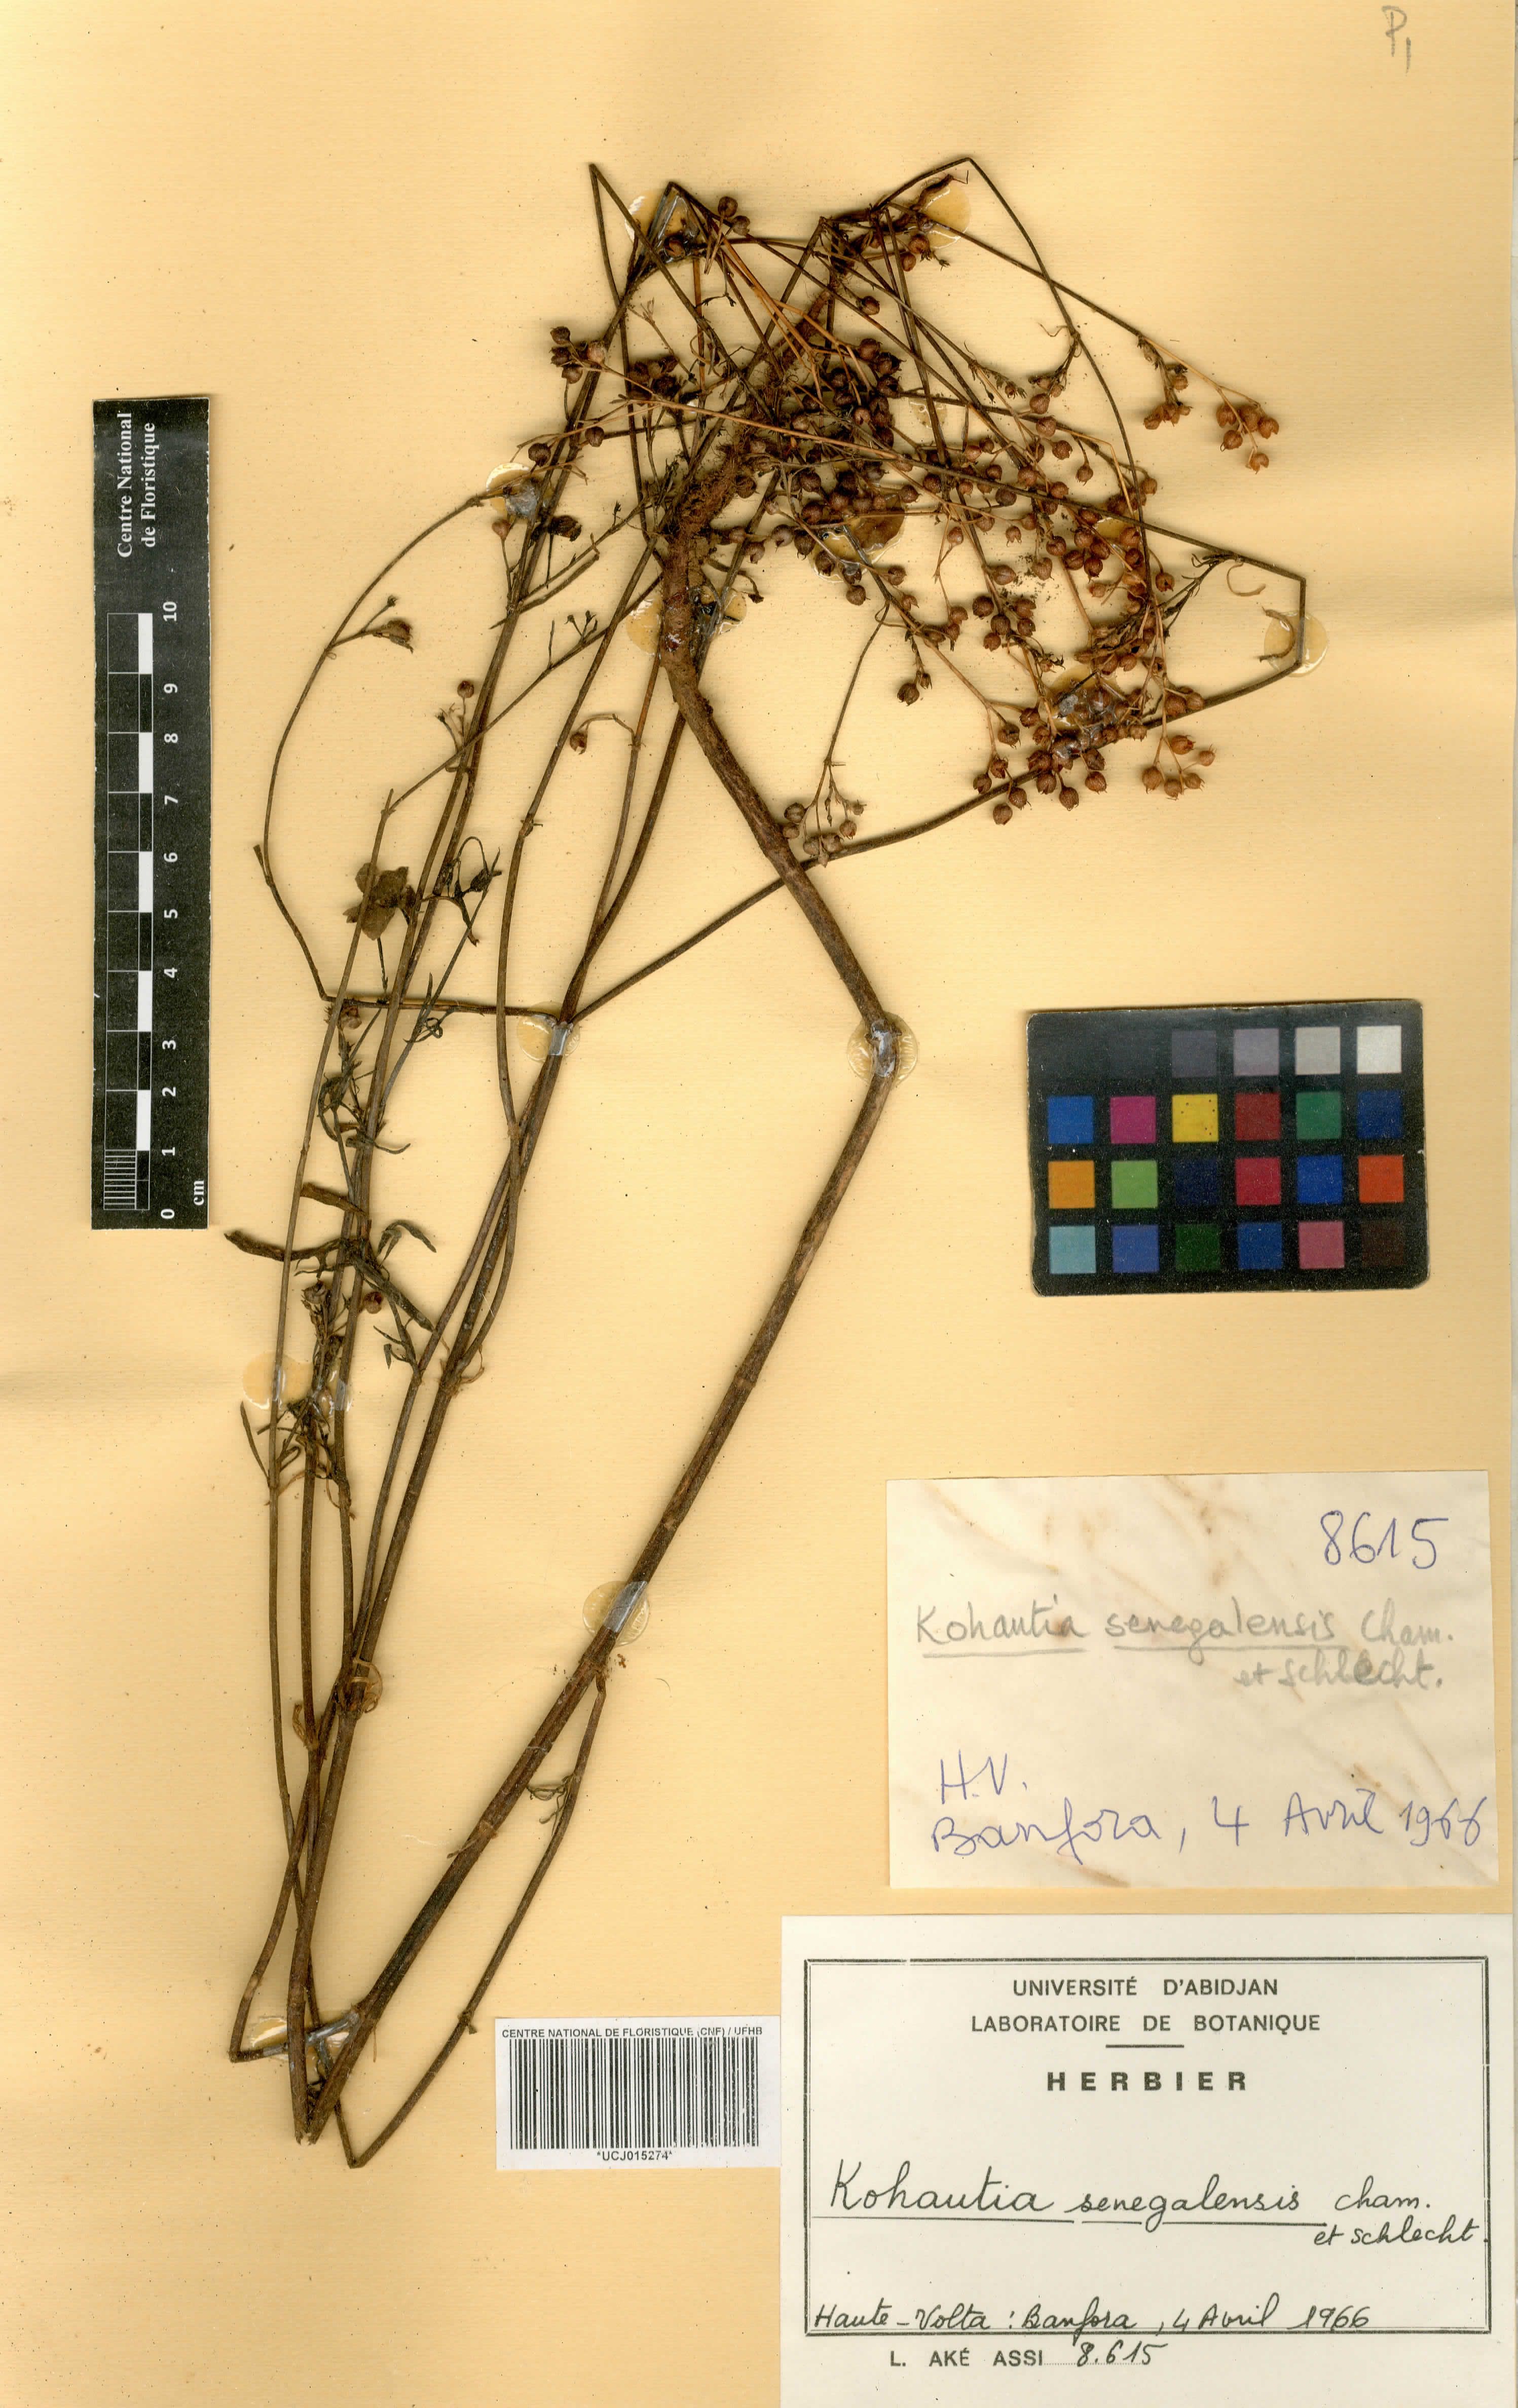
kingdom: Plantae
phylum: Tracheophyta
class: Magnoliopsida
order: Gentianales
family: Rubiaceae
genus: Kohautia
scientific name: Kohautia tenuis
